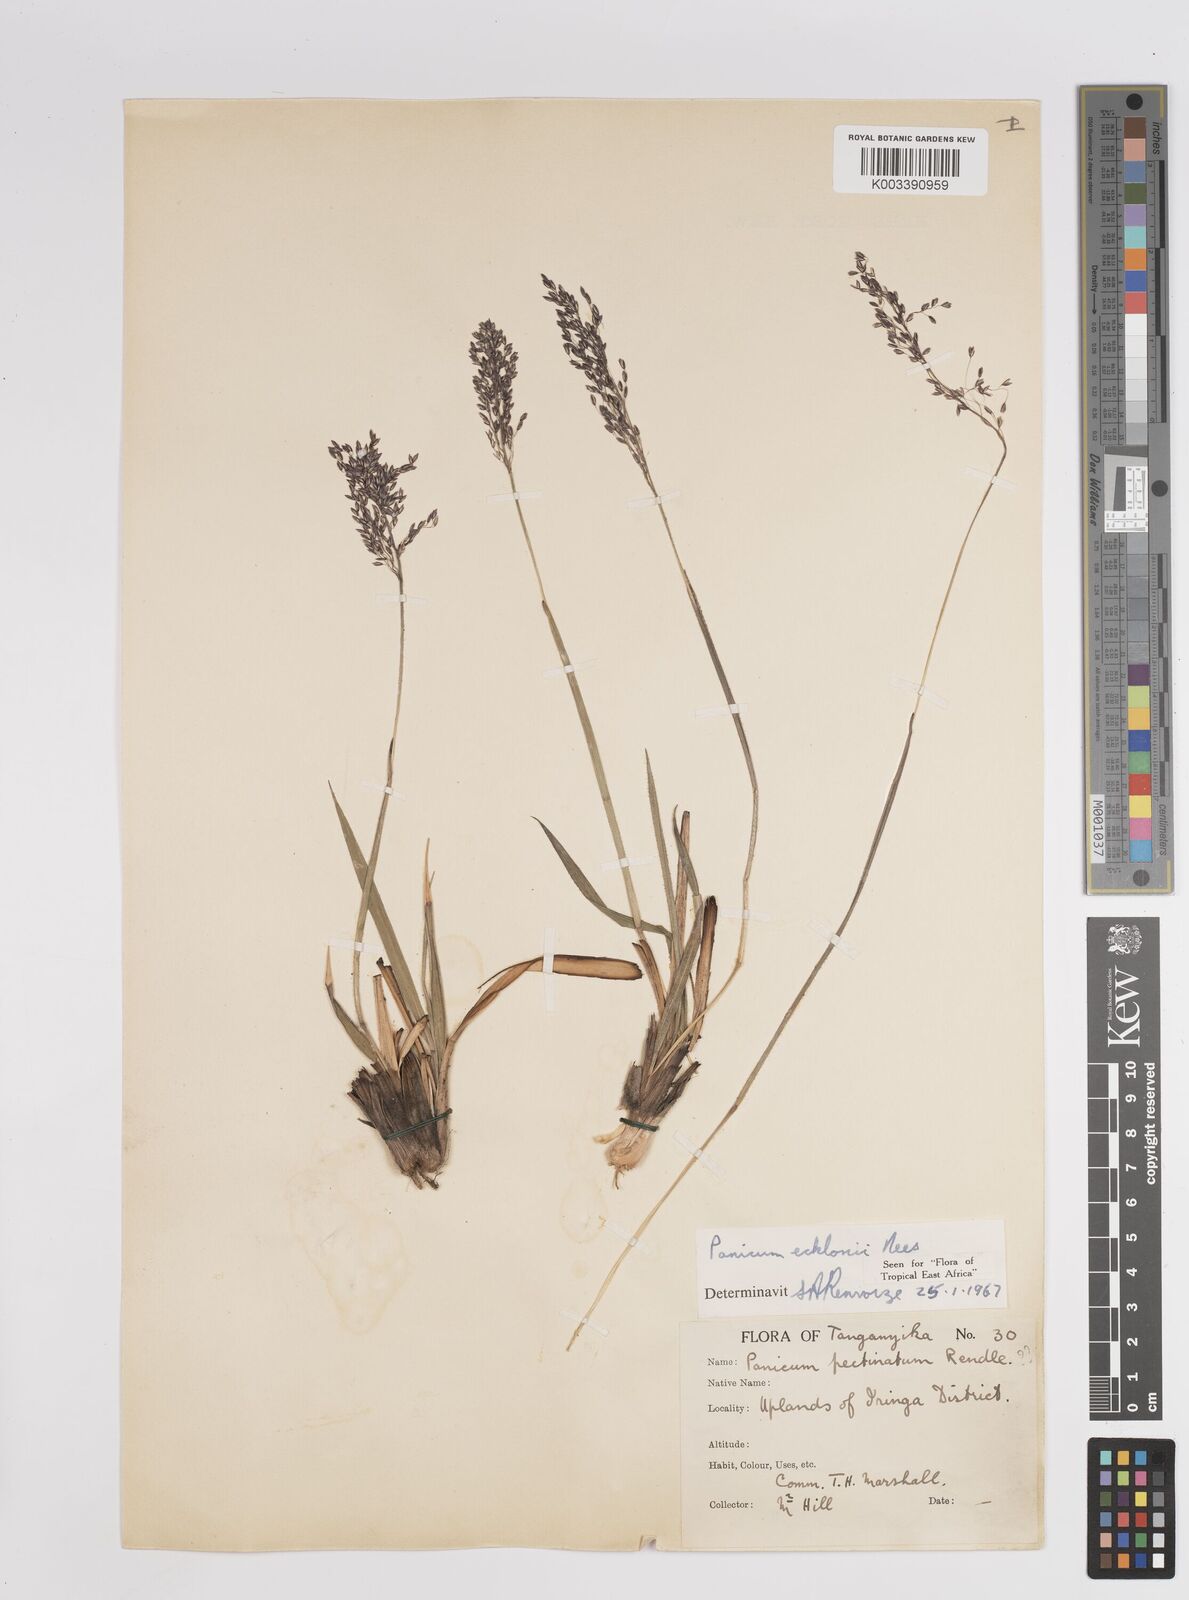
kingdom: Plantae
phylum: Tracheophyta
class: Liliopsida
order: Poales
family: Poaceae
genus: Adenochloa
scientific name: Adenochloa ecklonii
